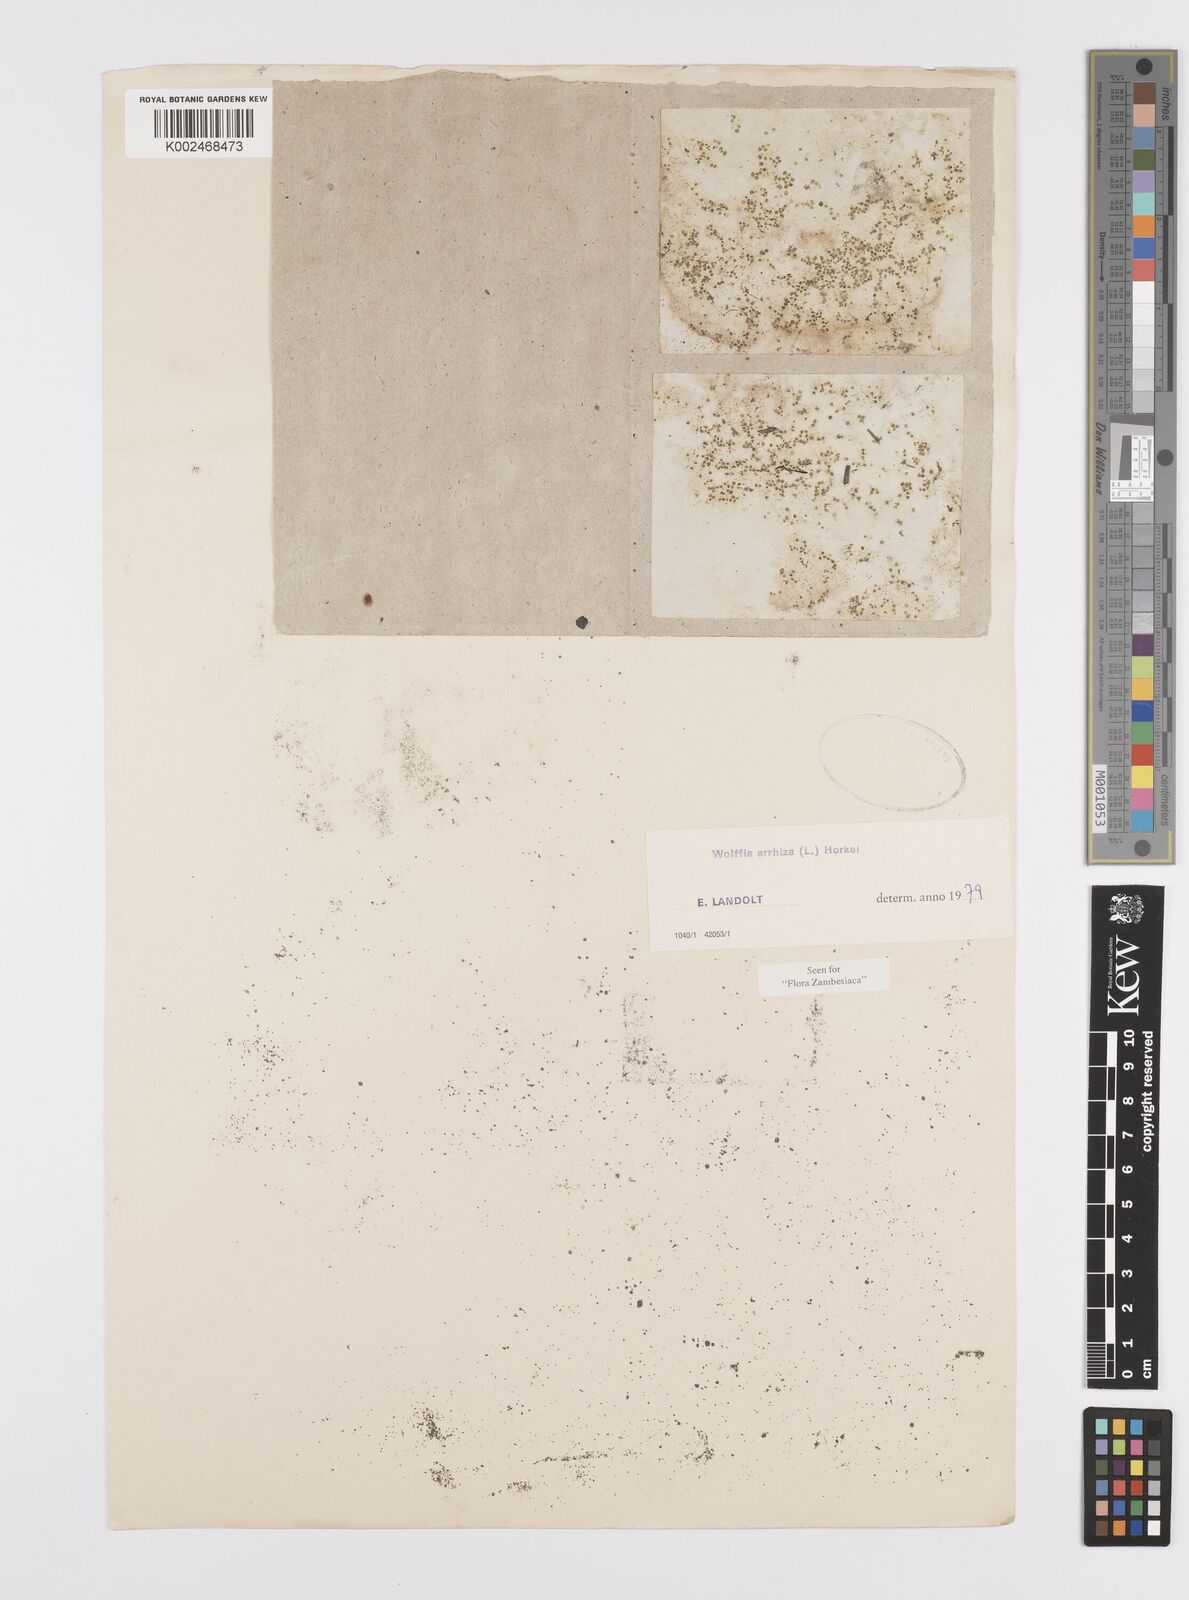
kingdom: Plantae
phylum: Tracheophyta
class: Liliopsida
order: Alismatales
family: Araceae
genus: Wolffia
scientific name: Wolffia arrhiza
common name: Rootless duckweed
